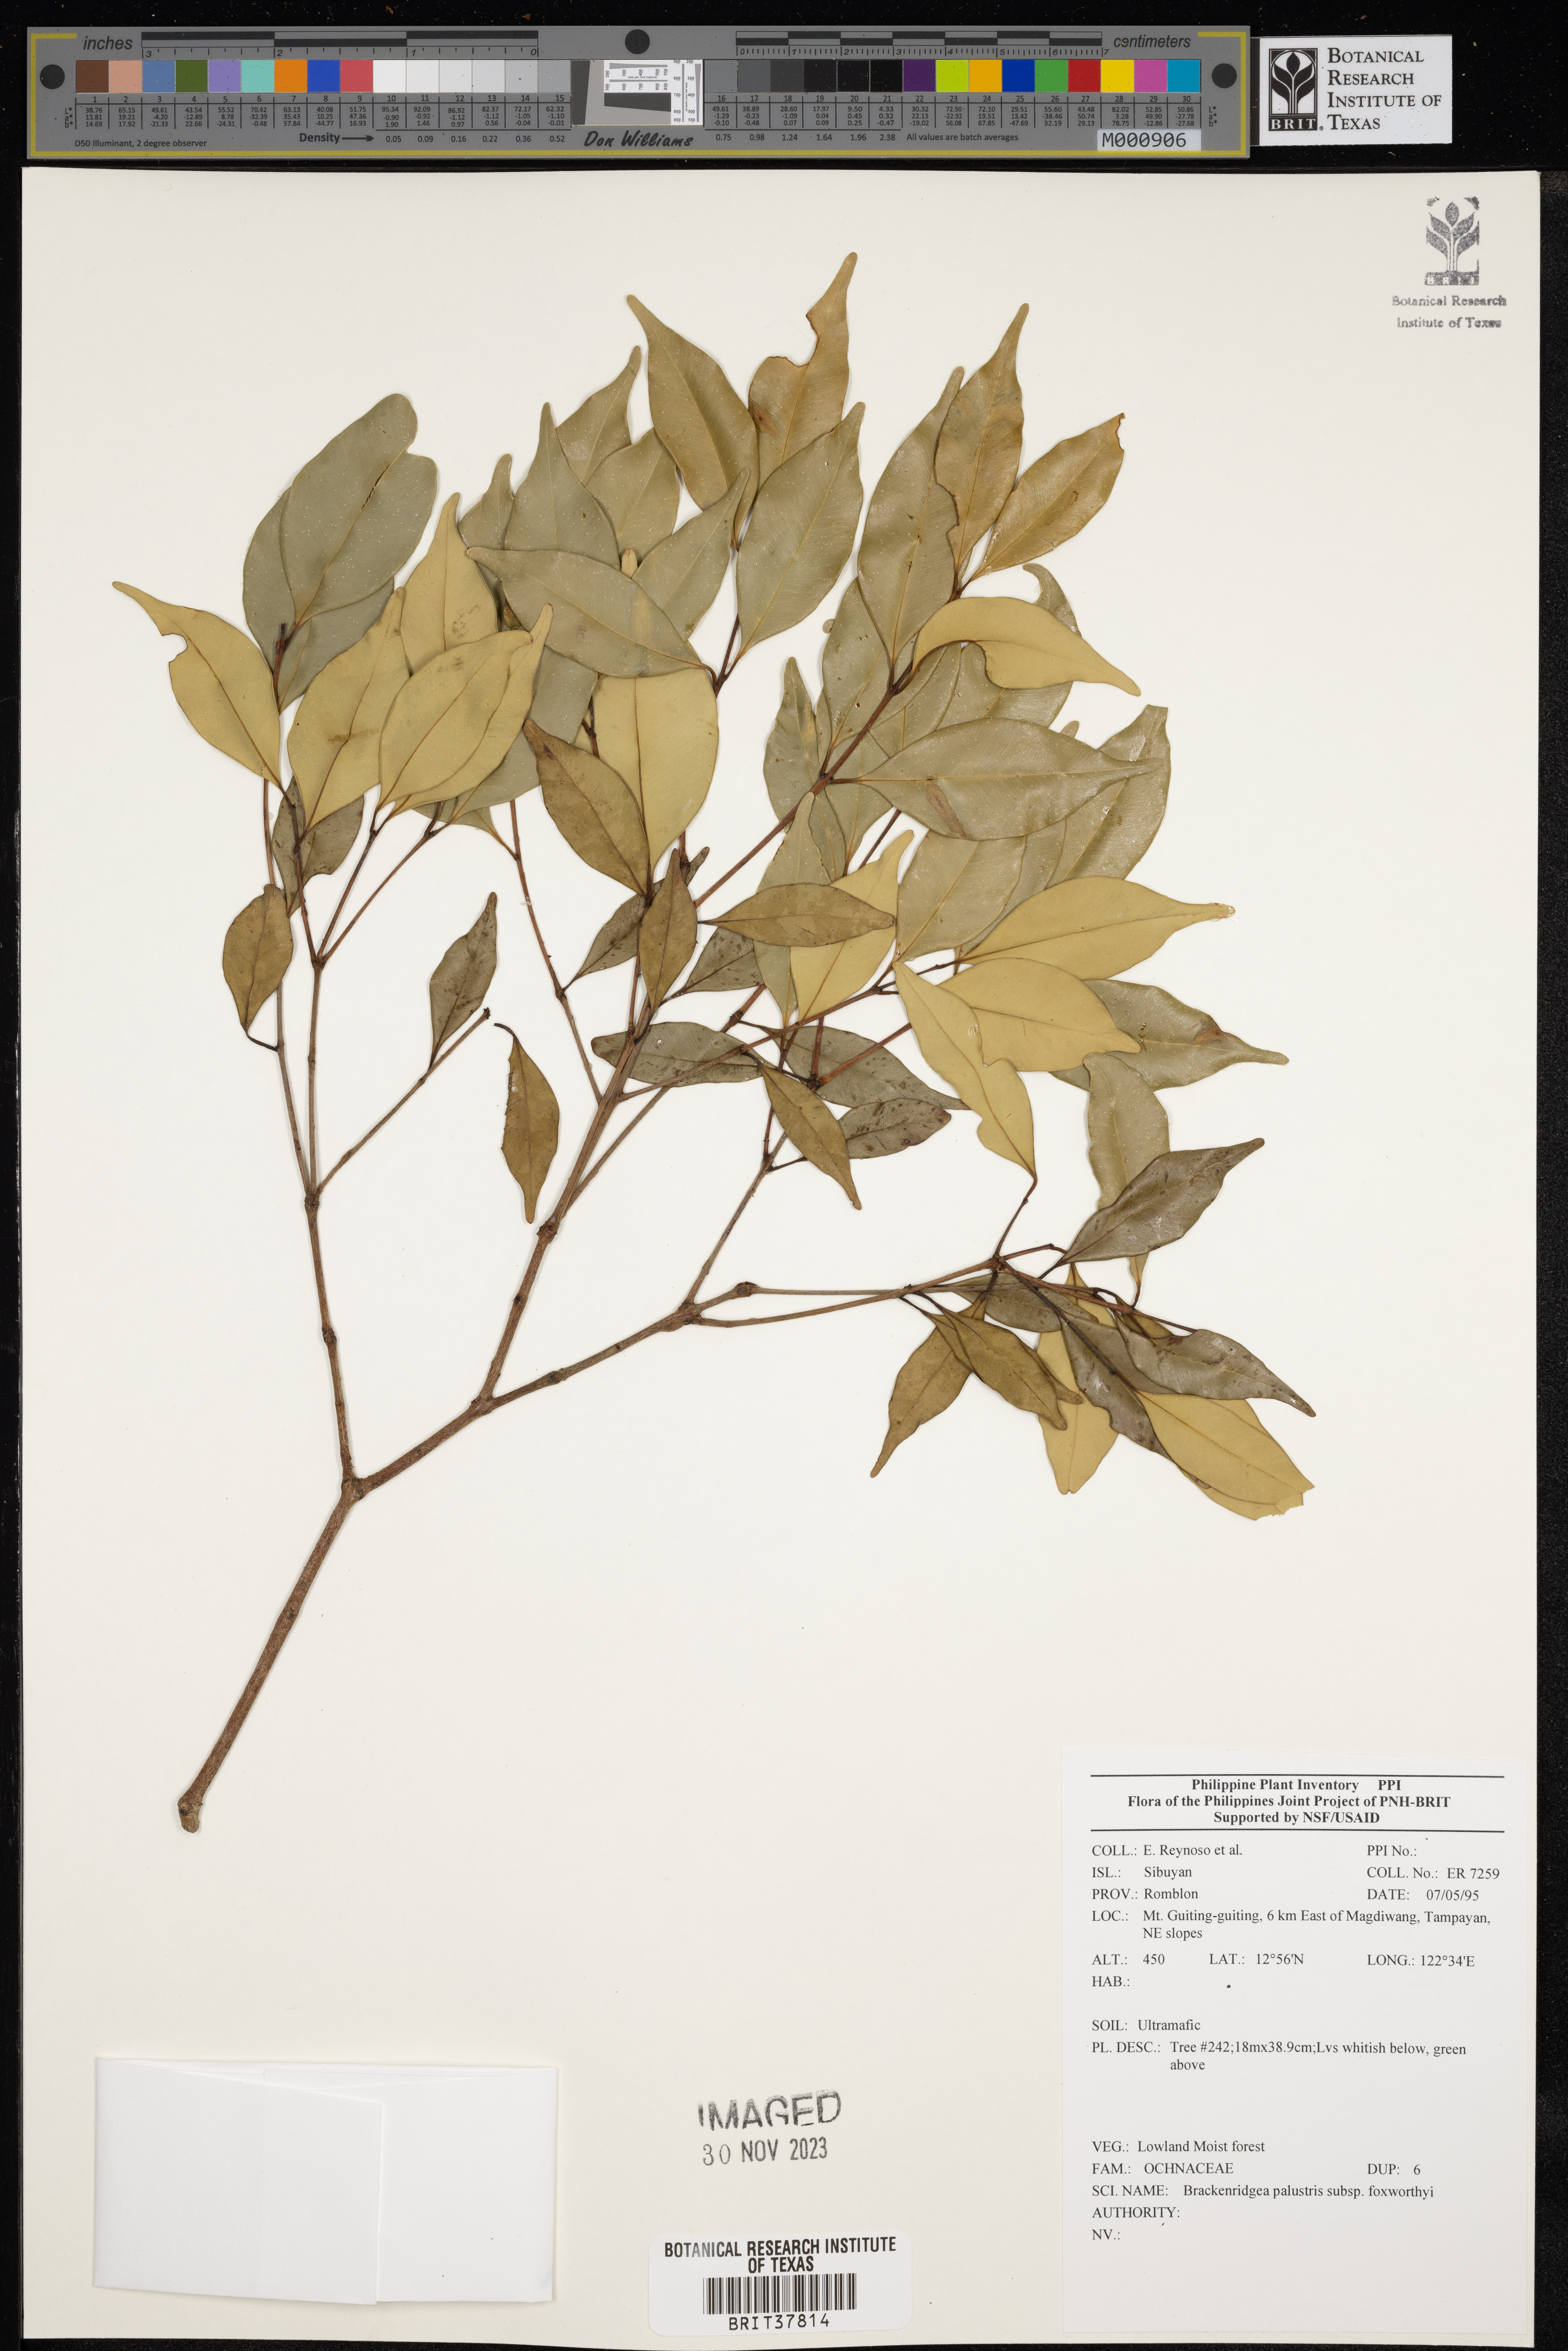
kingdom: Plantae
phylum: Tracheophyta
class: Magnoliopsida
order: Malpighiales
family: Ochnaceae
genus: Brackenridgea
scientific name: Brackenridgea palustris
